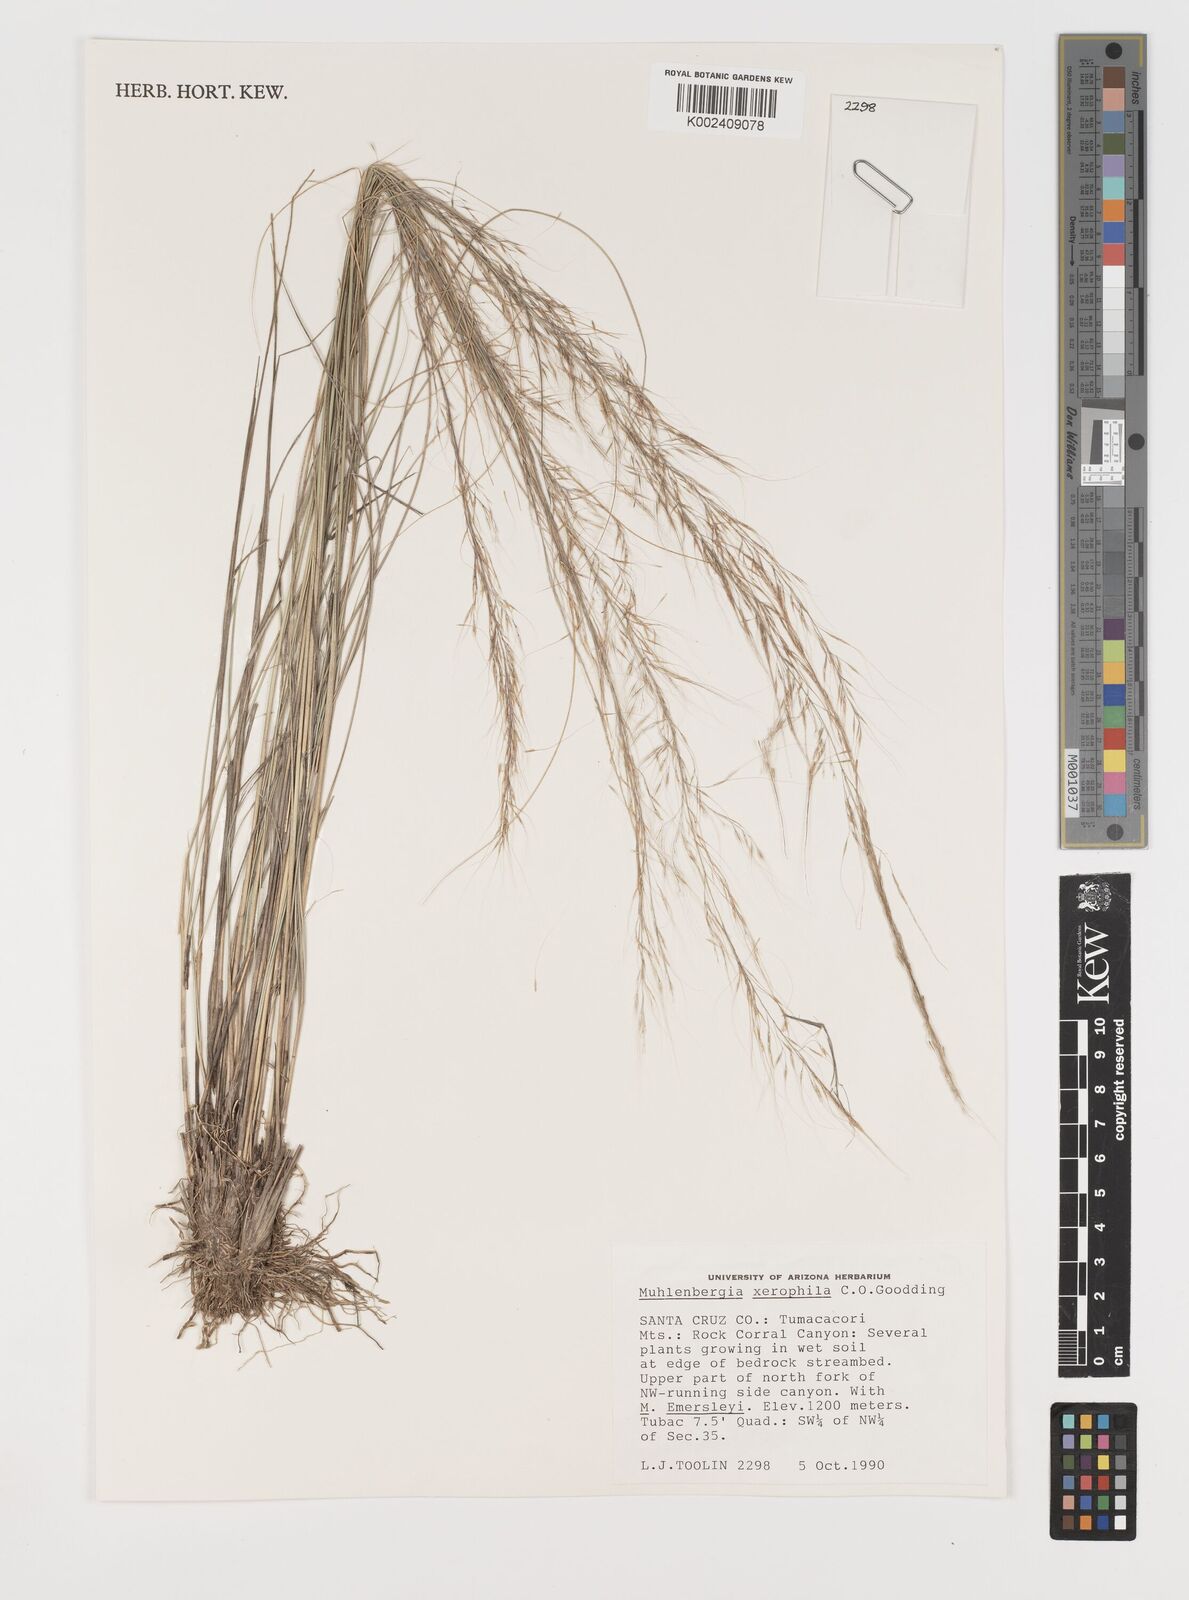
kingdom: Plantae
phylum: Tracheophyta
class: Liliopsida
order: Poales
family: Poaceae
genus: Muhlenbergia
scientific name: Muhlenbergia elongata
